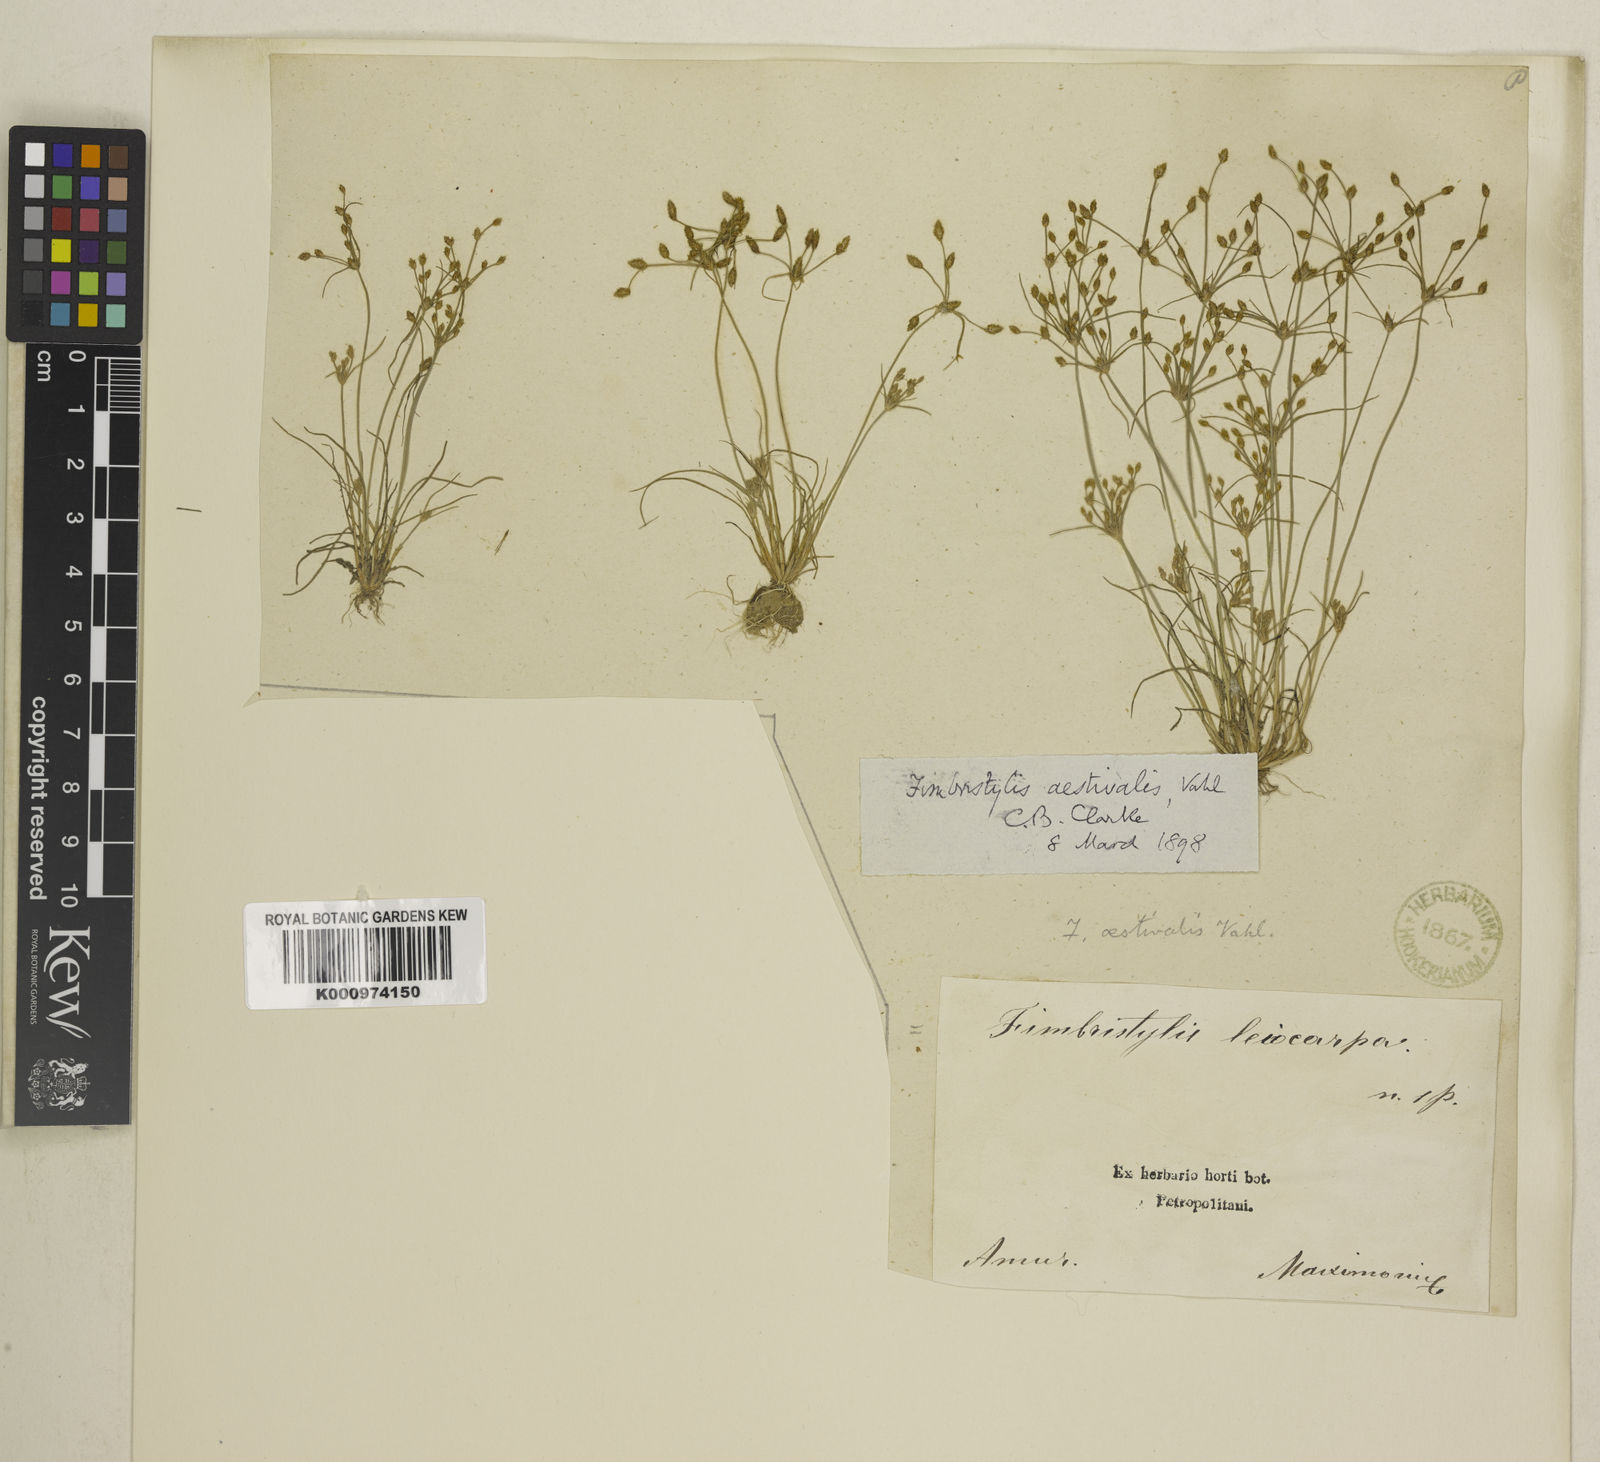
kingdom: Plantae
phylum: Tracheophyta
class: Liliopsida
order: Poales
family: Cyperaceae
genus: Fimbristylis
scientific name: Fimbristylis aestivalis
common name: Summer fimbry
